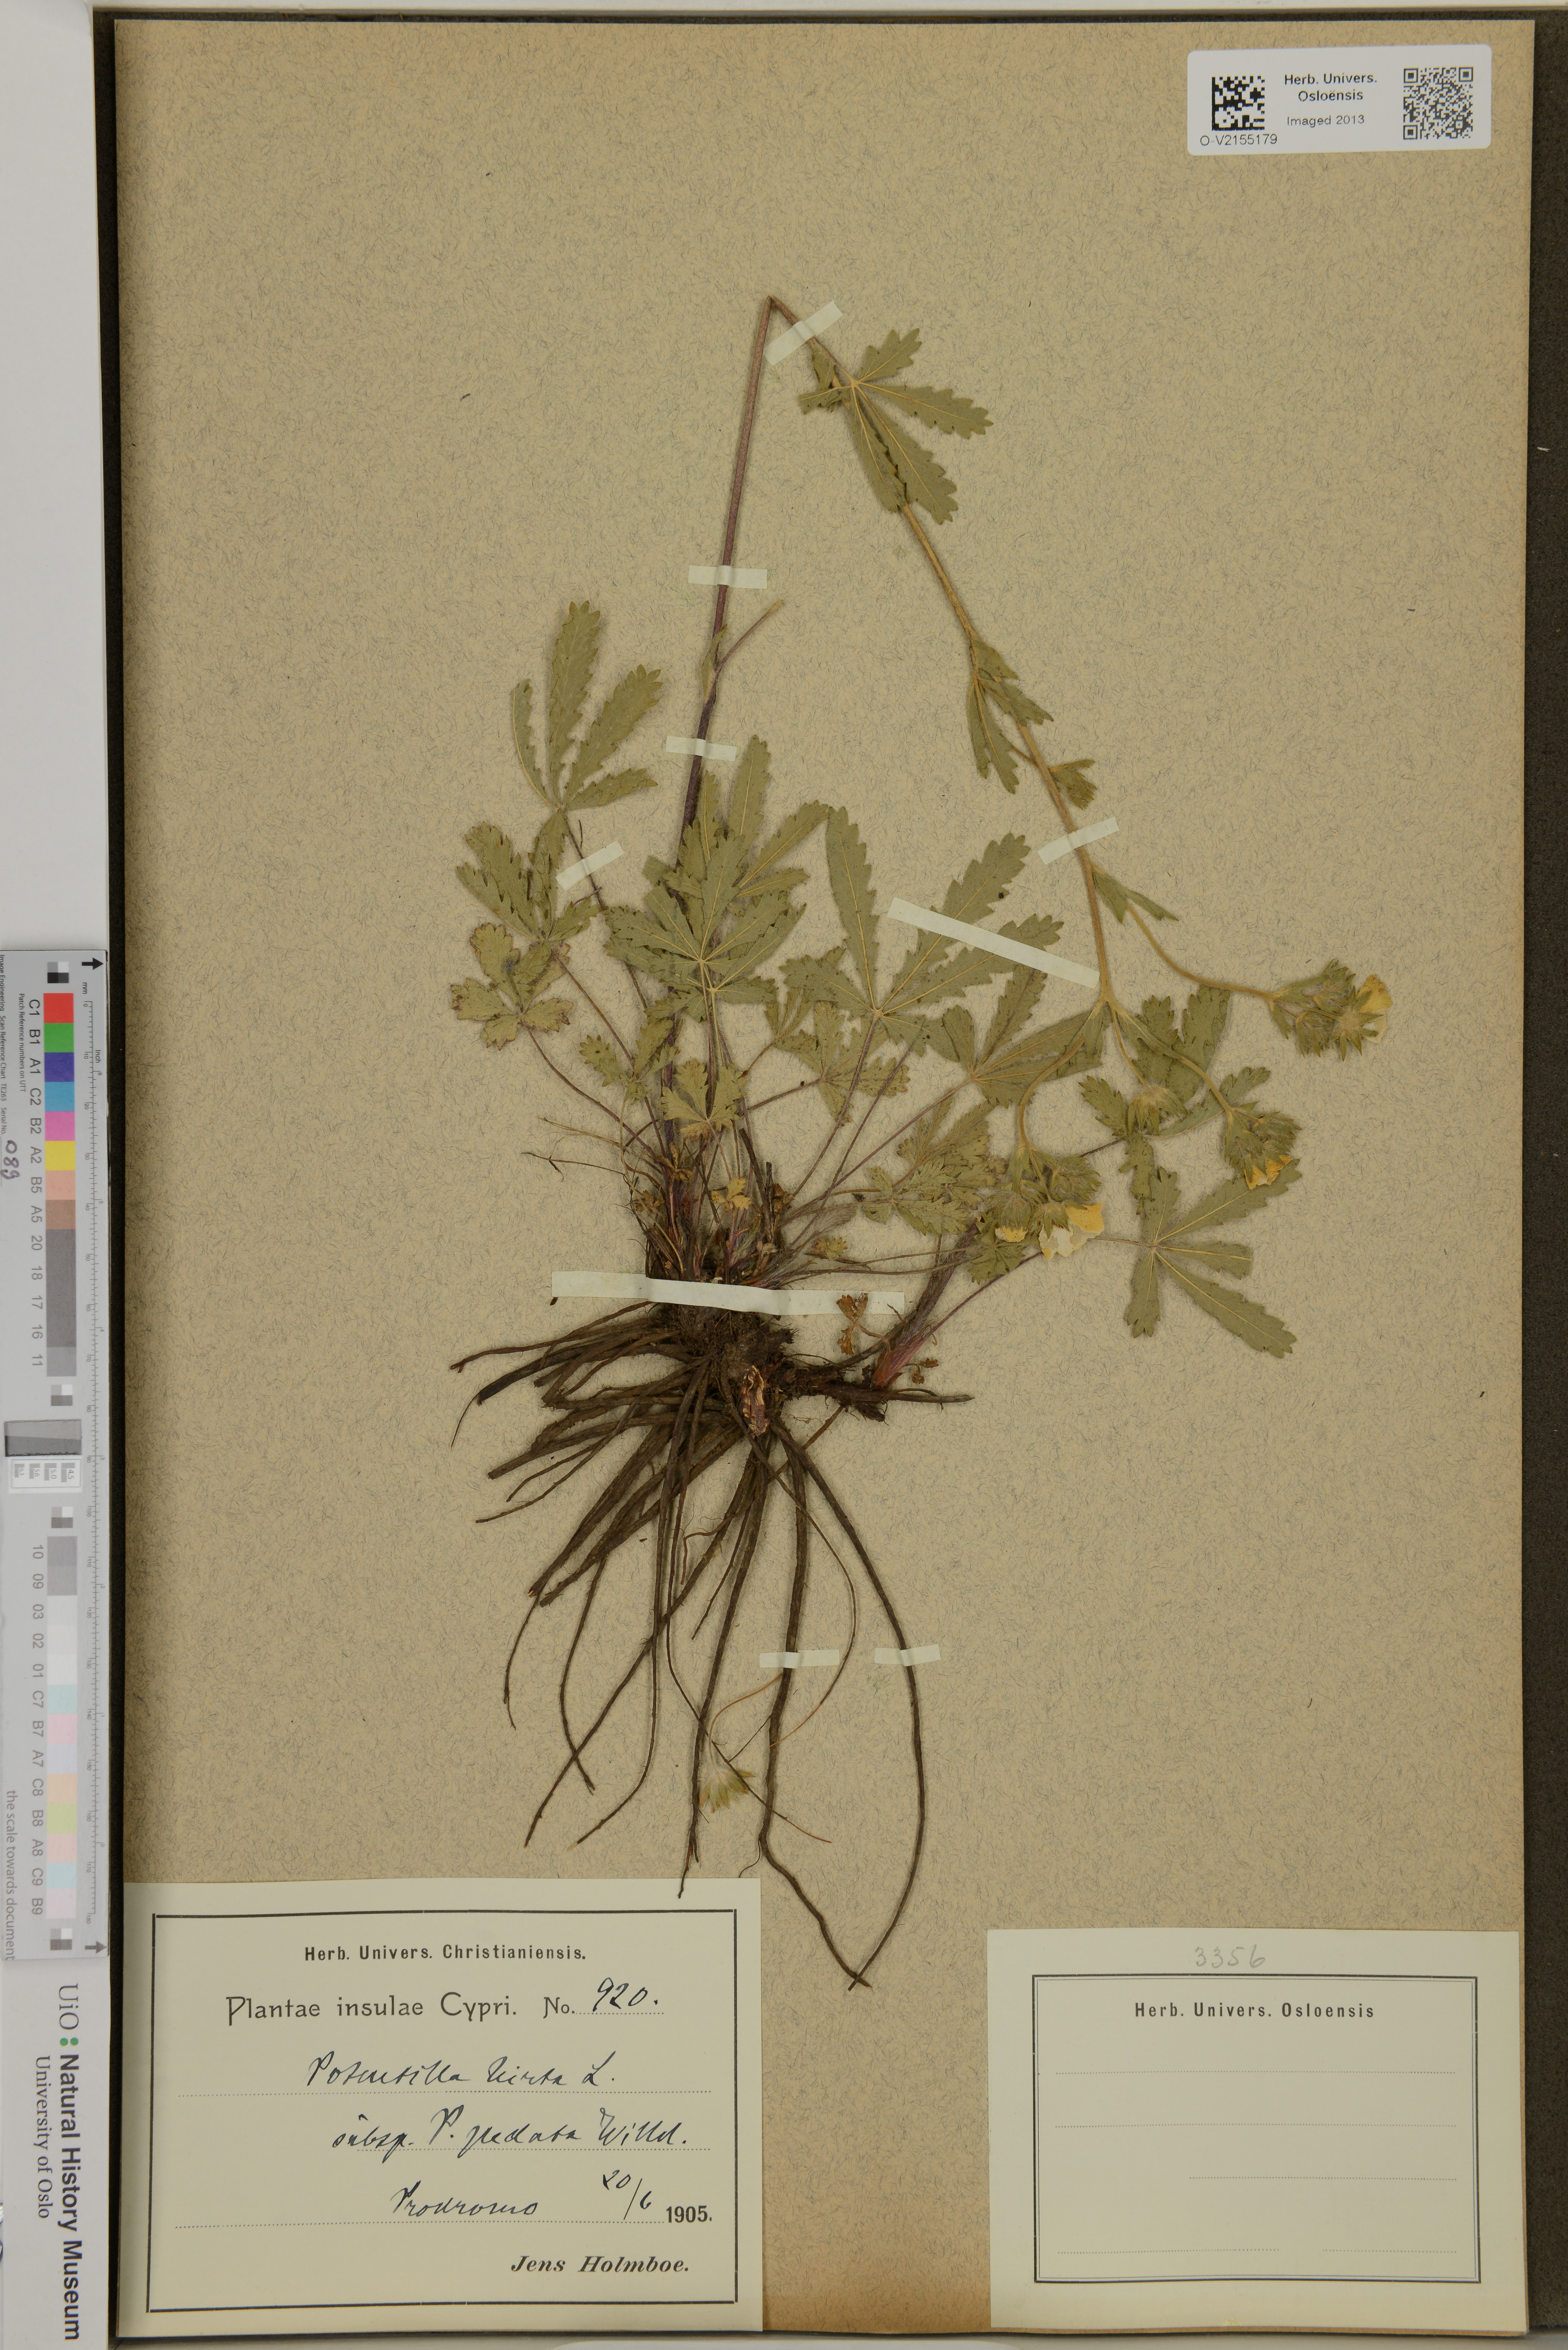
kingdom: Plantae
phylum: Tracheophyta
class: Magnoliopsida
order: Rosales
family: Rosaceae
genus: Potentilla
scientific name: Potentilla hirta
